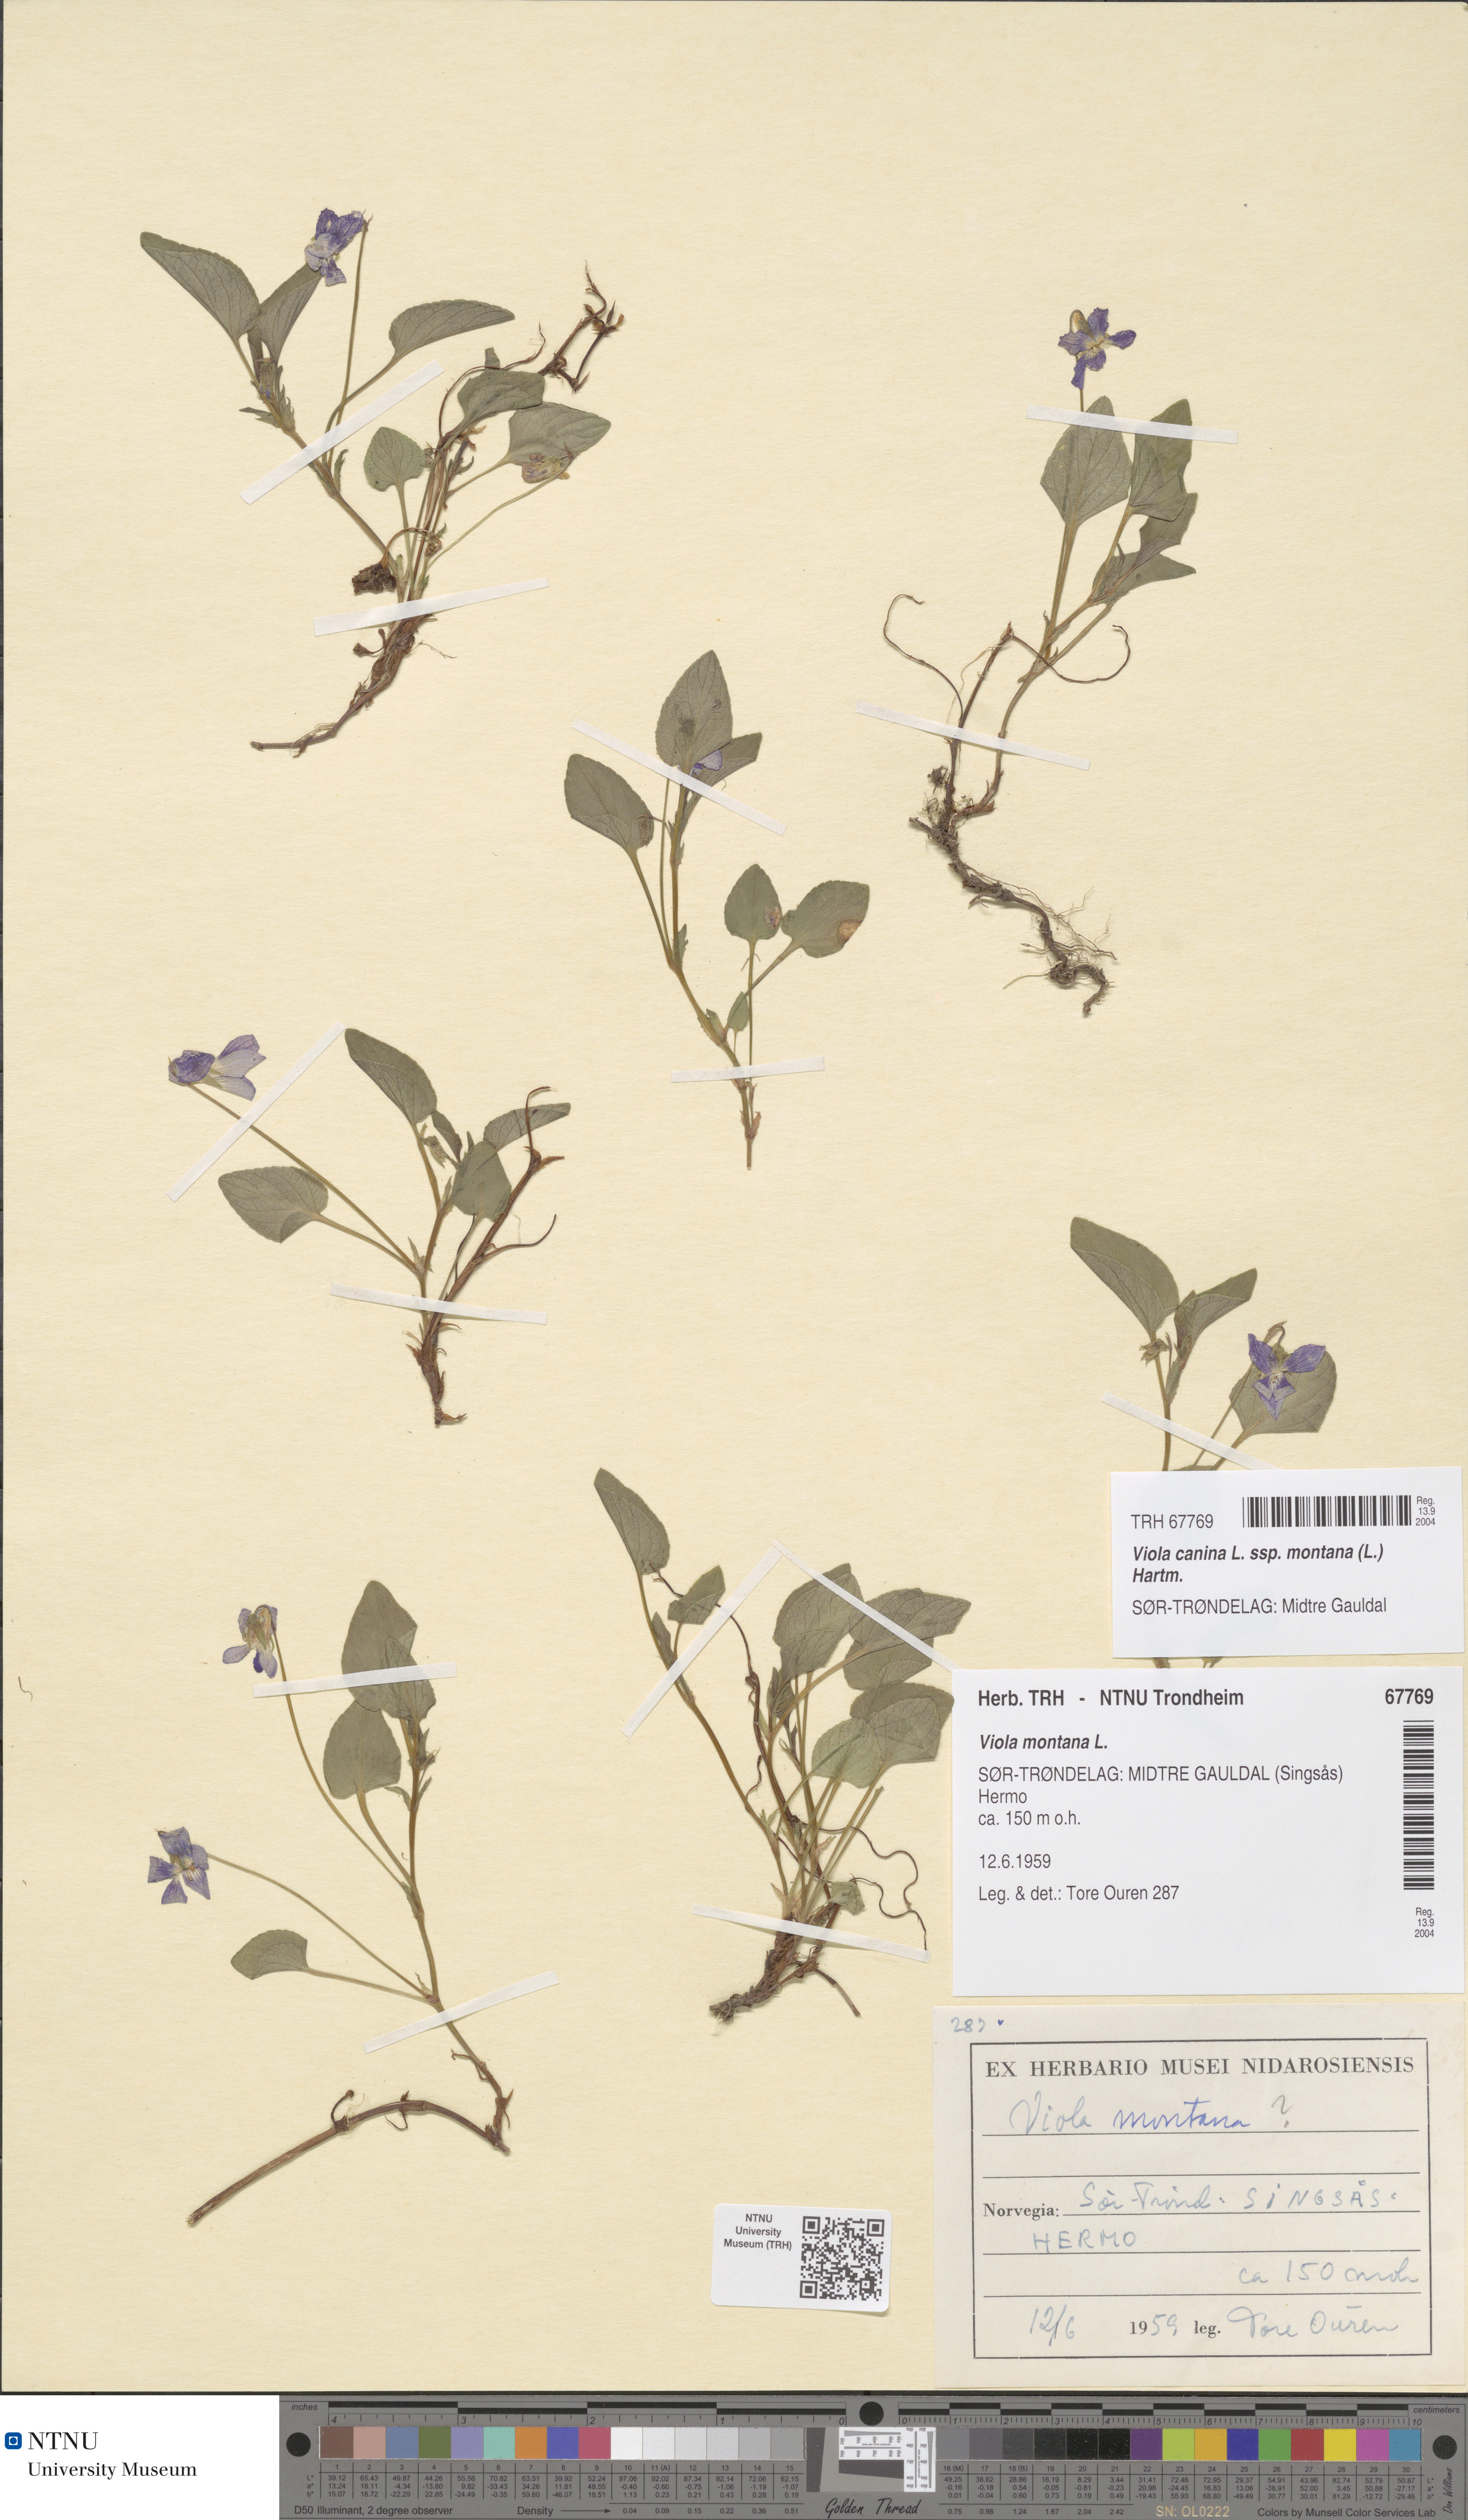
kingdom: Plantae
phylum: Tracheophyta
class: Magnoliopsida
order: Malpighiales
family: Violaceae
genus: Viola
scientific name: Viola ruppii
